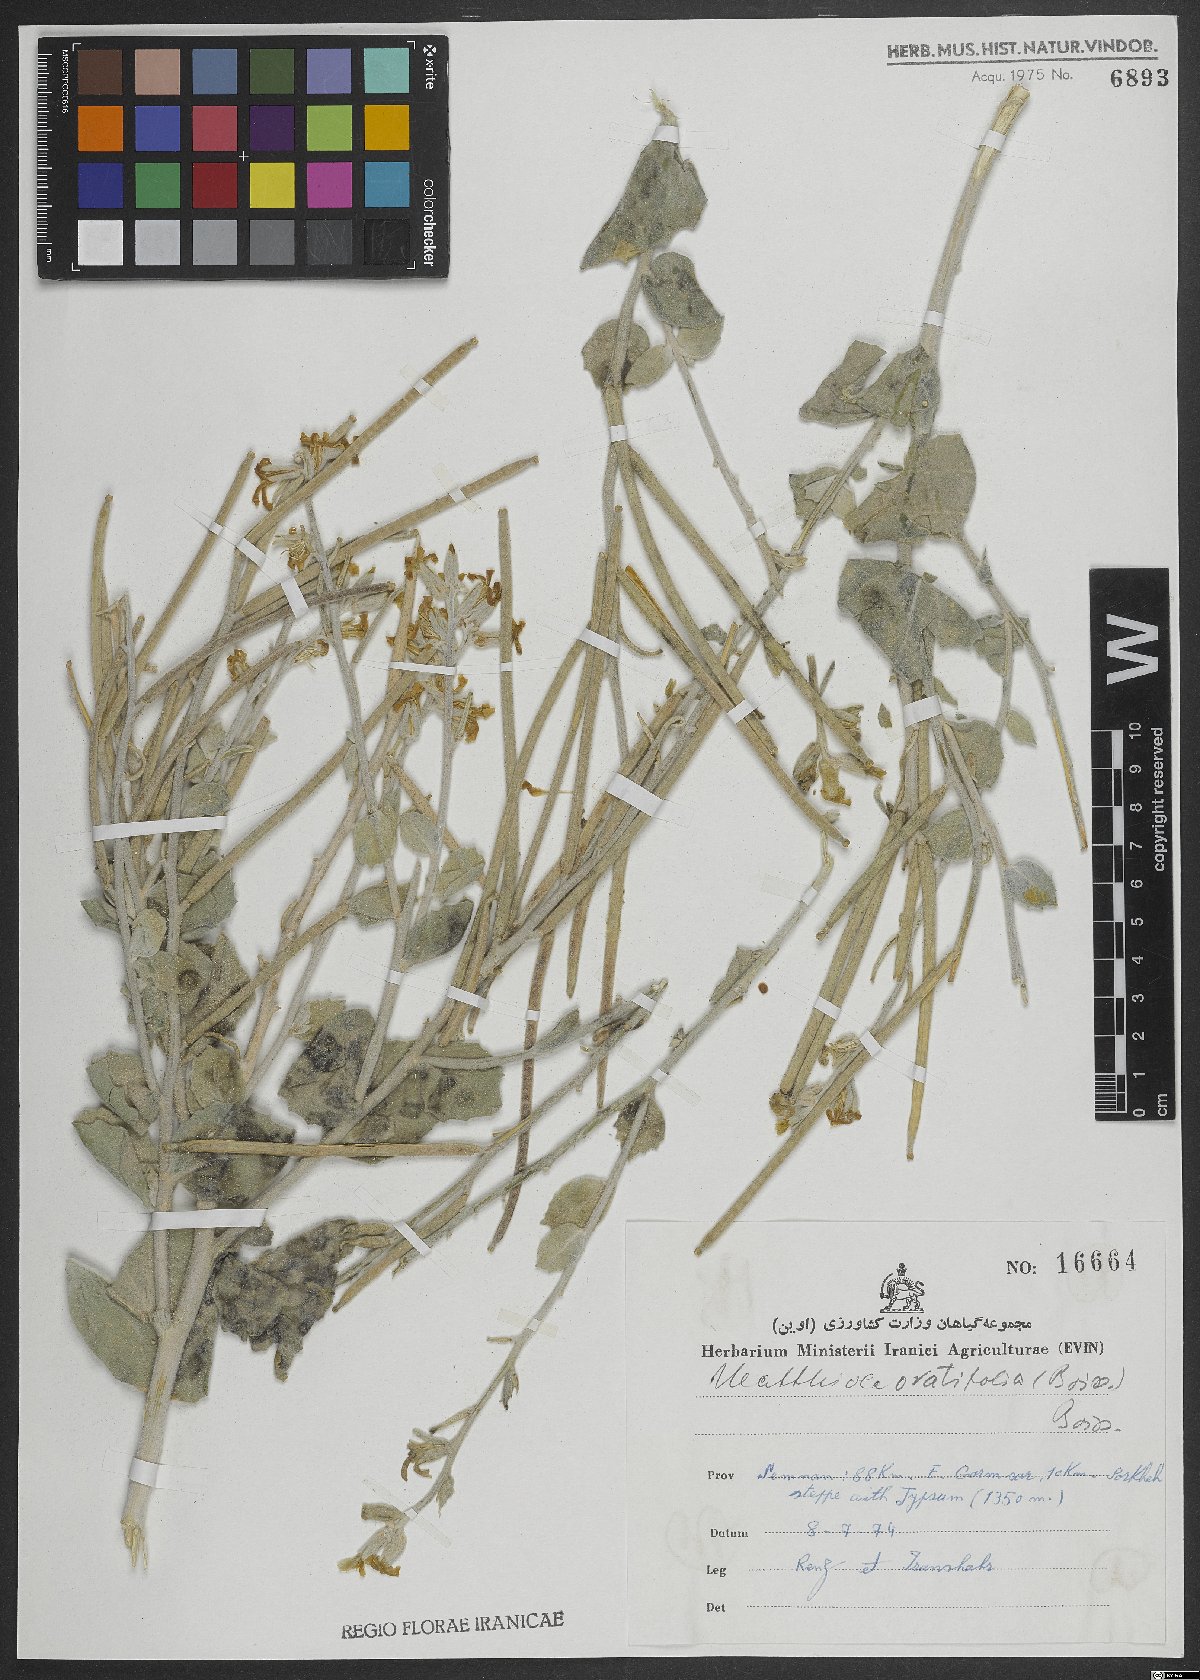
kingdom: Plantae
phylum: Tracheophyta
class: Magnoliopsida
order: Brassicales
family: Brassicaceae
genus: Matthiola
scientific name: Matthiola ovatifolia
